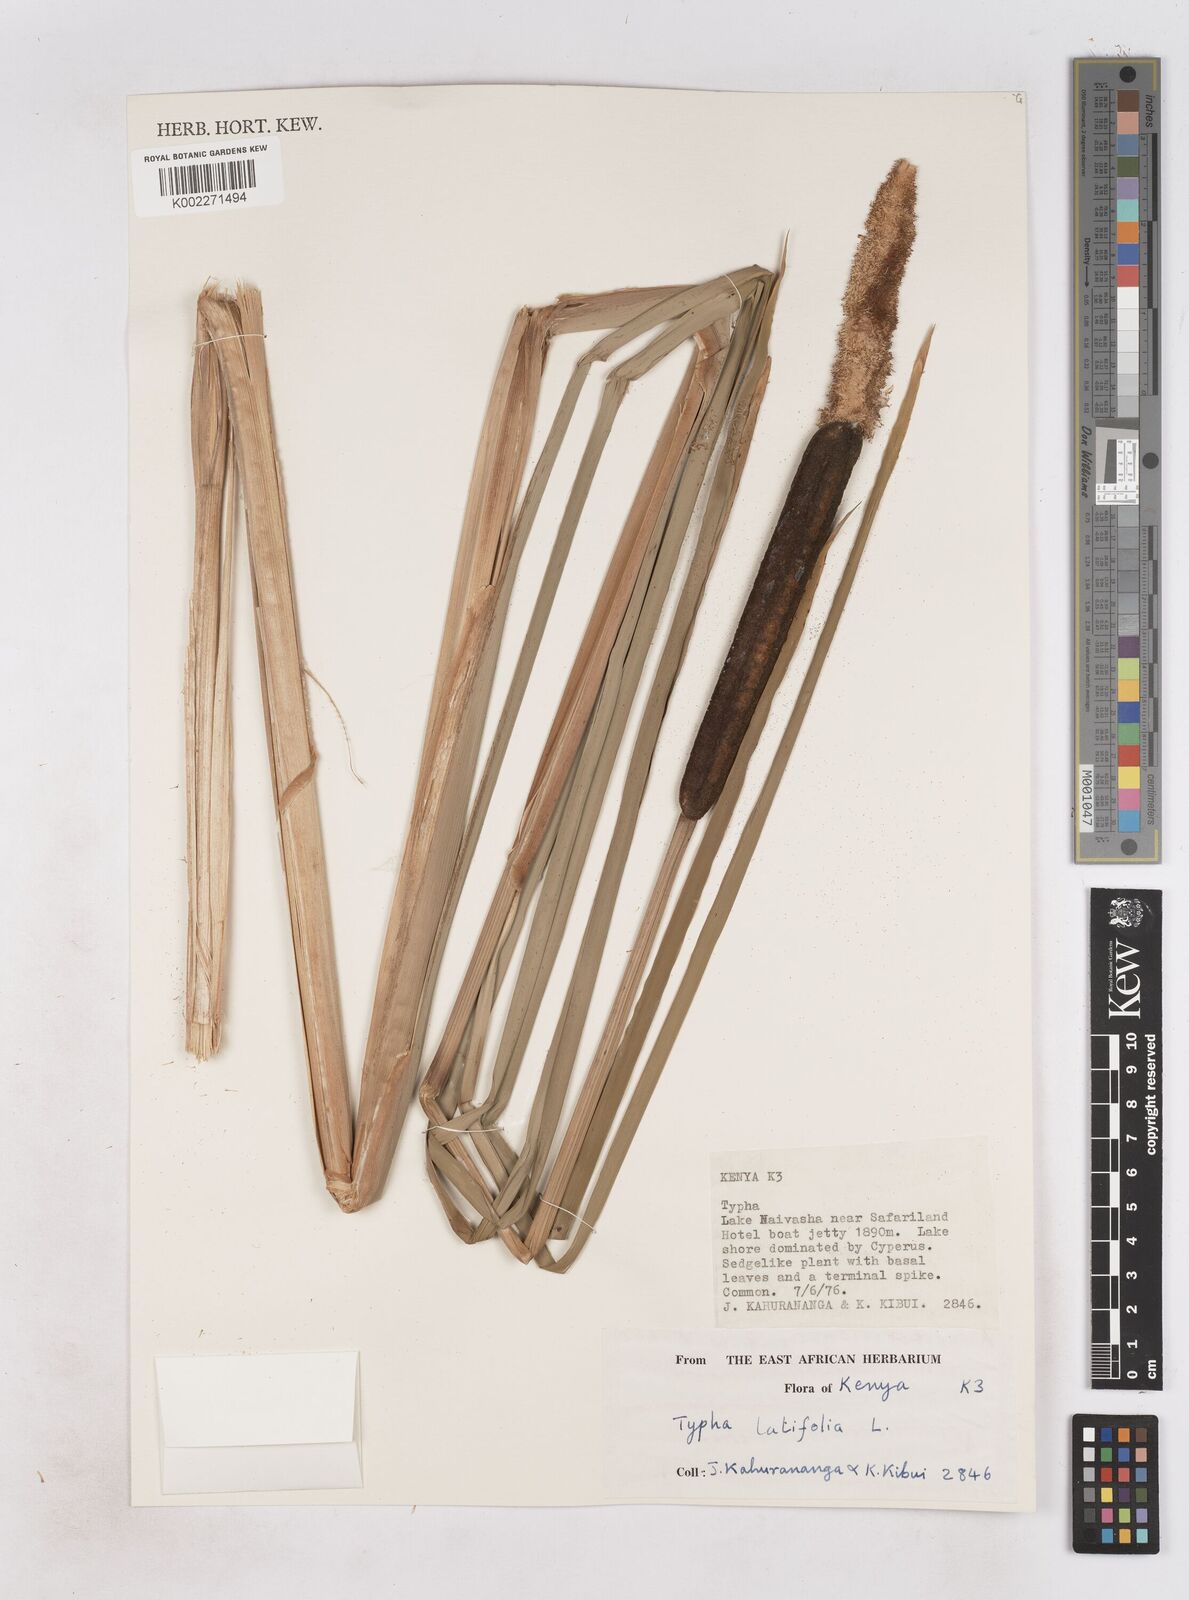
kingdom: Plantae
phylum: Tracheophyta
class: Liliopsida
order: Poales
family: Typhaceae
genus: Typha
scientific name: Typha latifolia
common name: Broadleaf cattail
